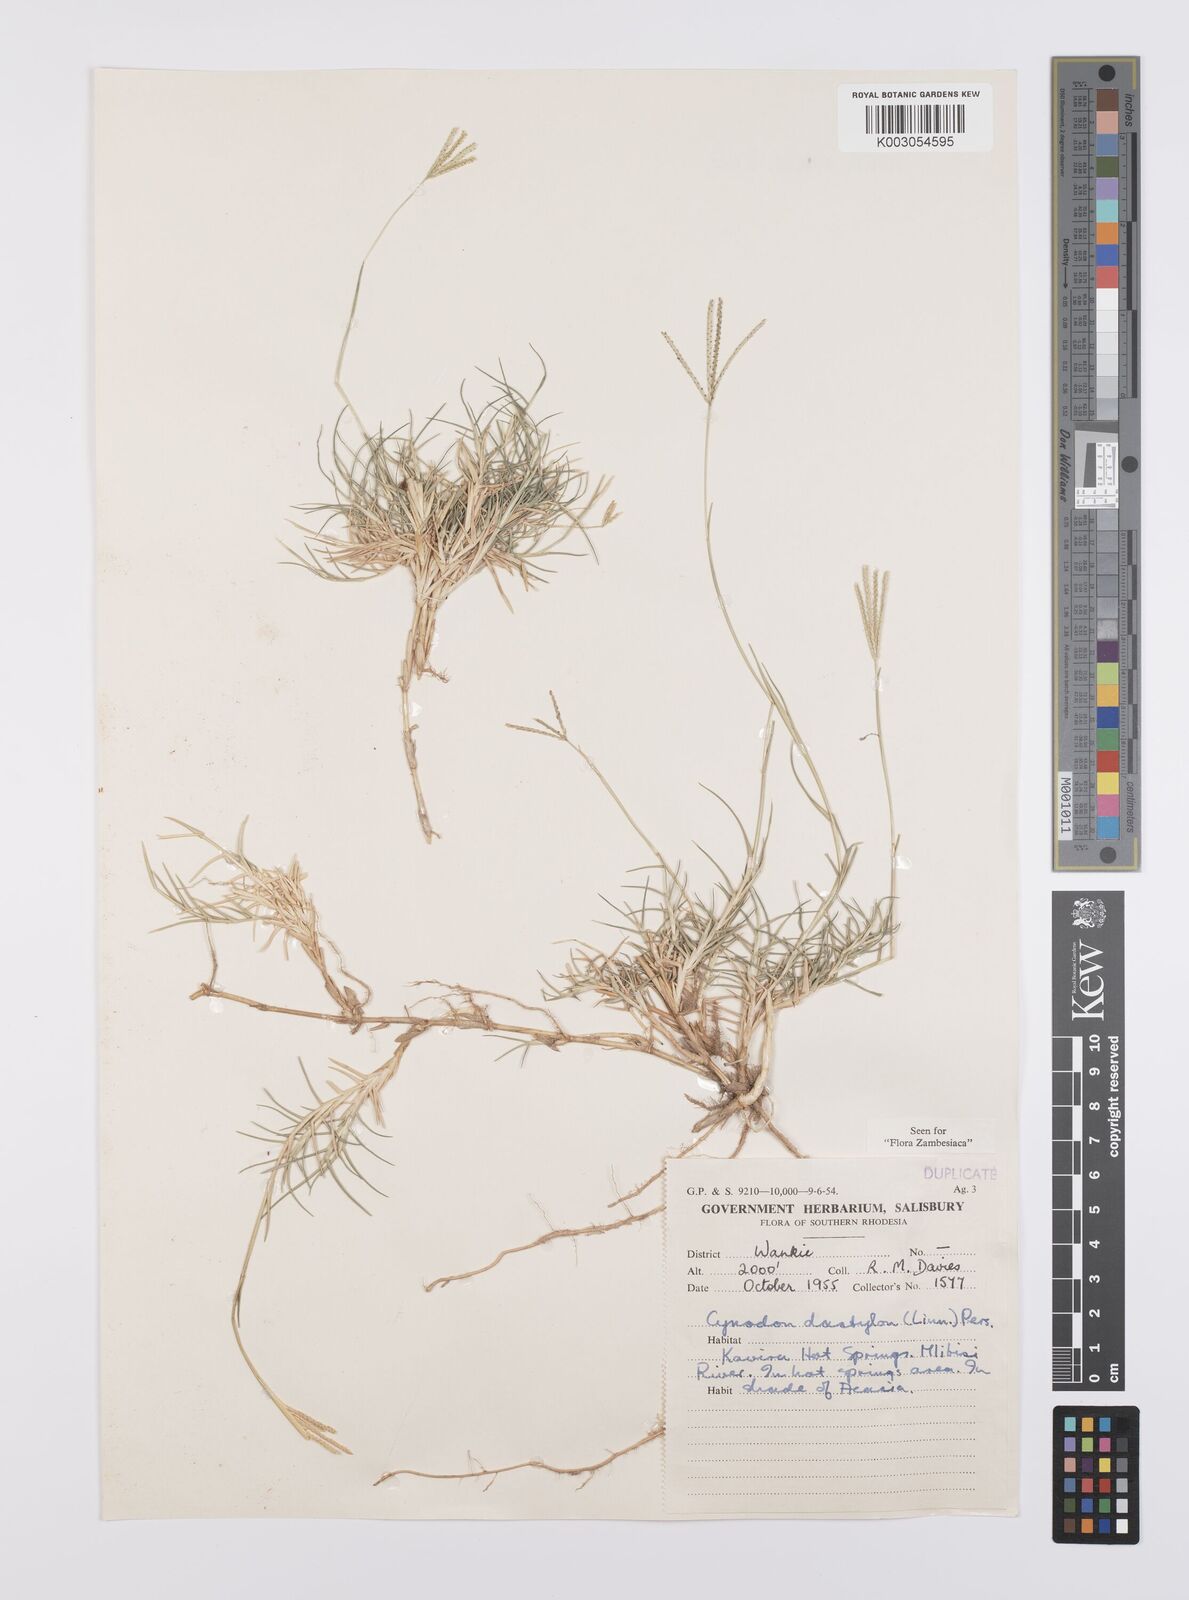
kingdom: Plantae
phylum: Tracheophyta
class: Liliopsida
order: Poales
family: Poaceae
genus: Cynodon
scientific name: Cynodon dactylon
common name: Bermuda grass
